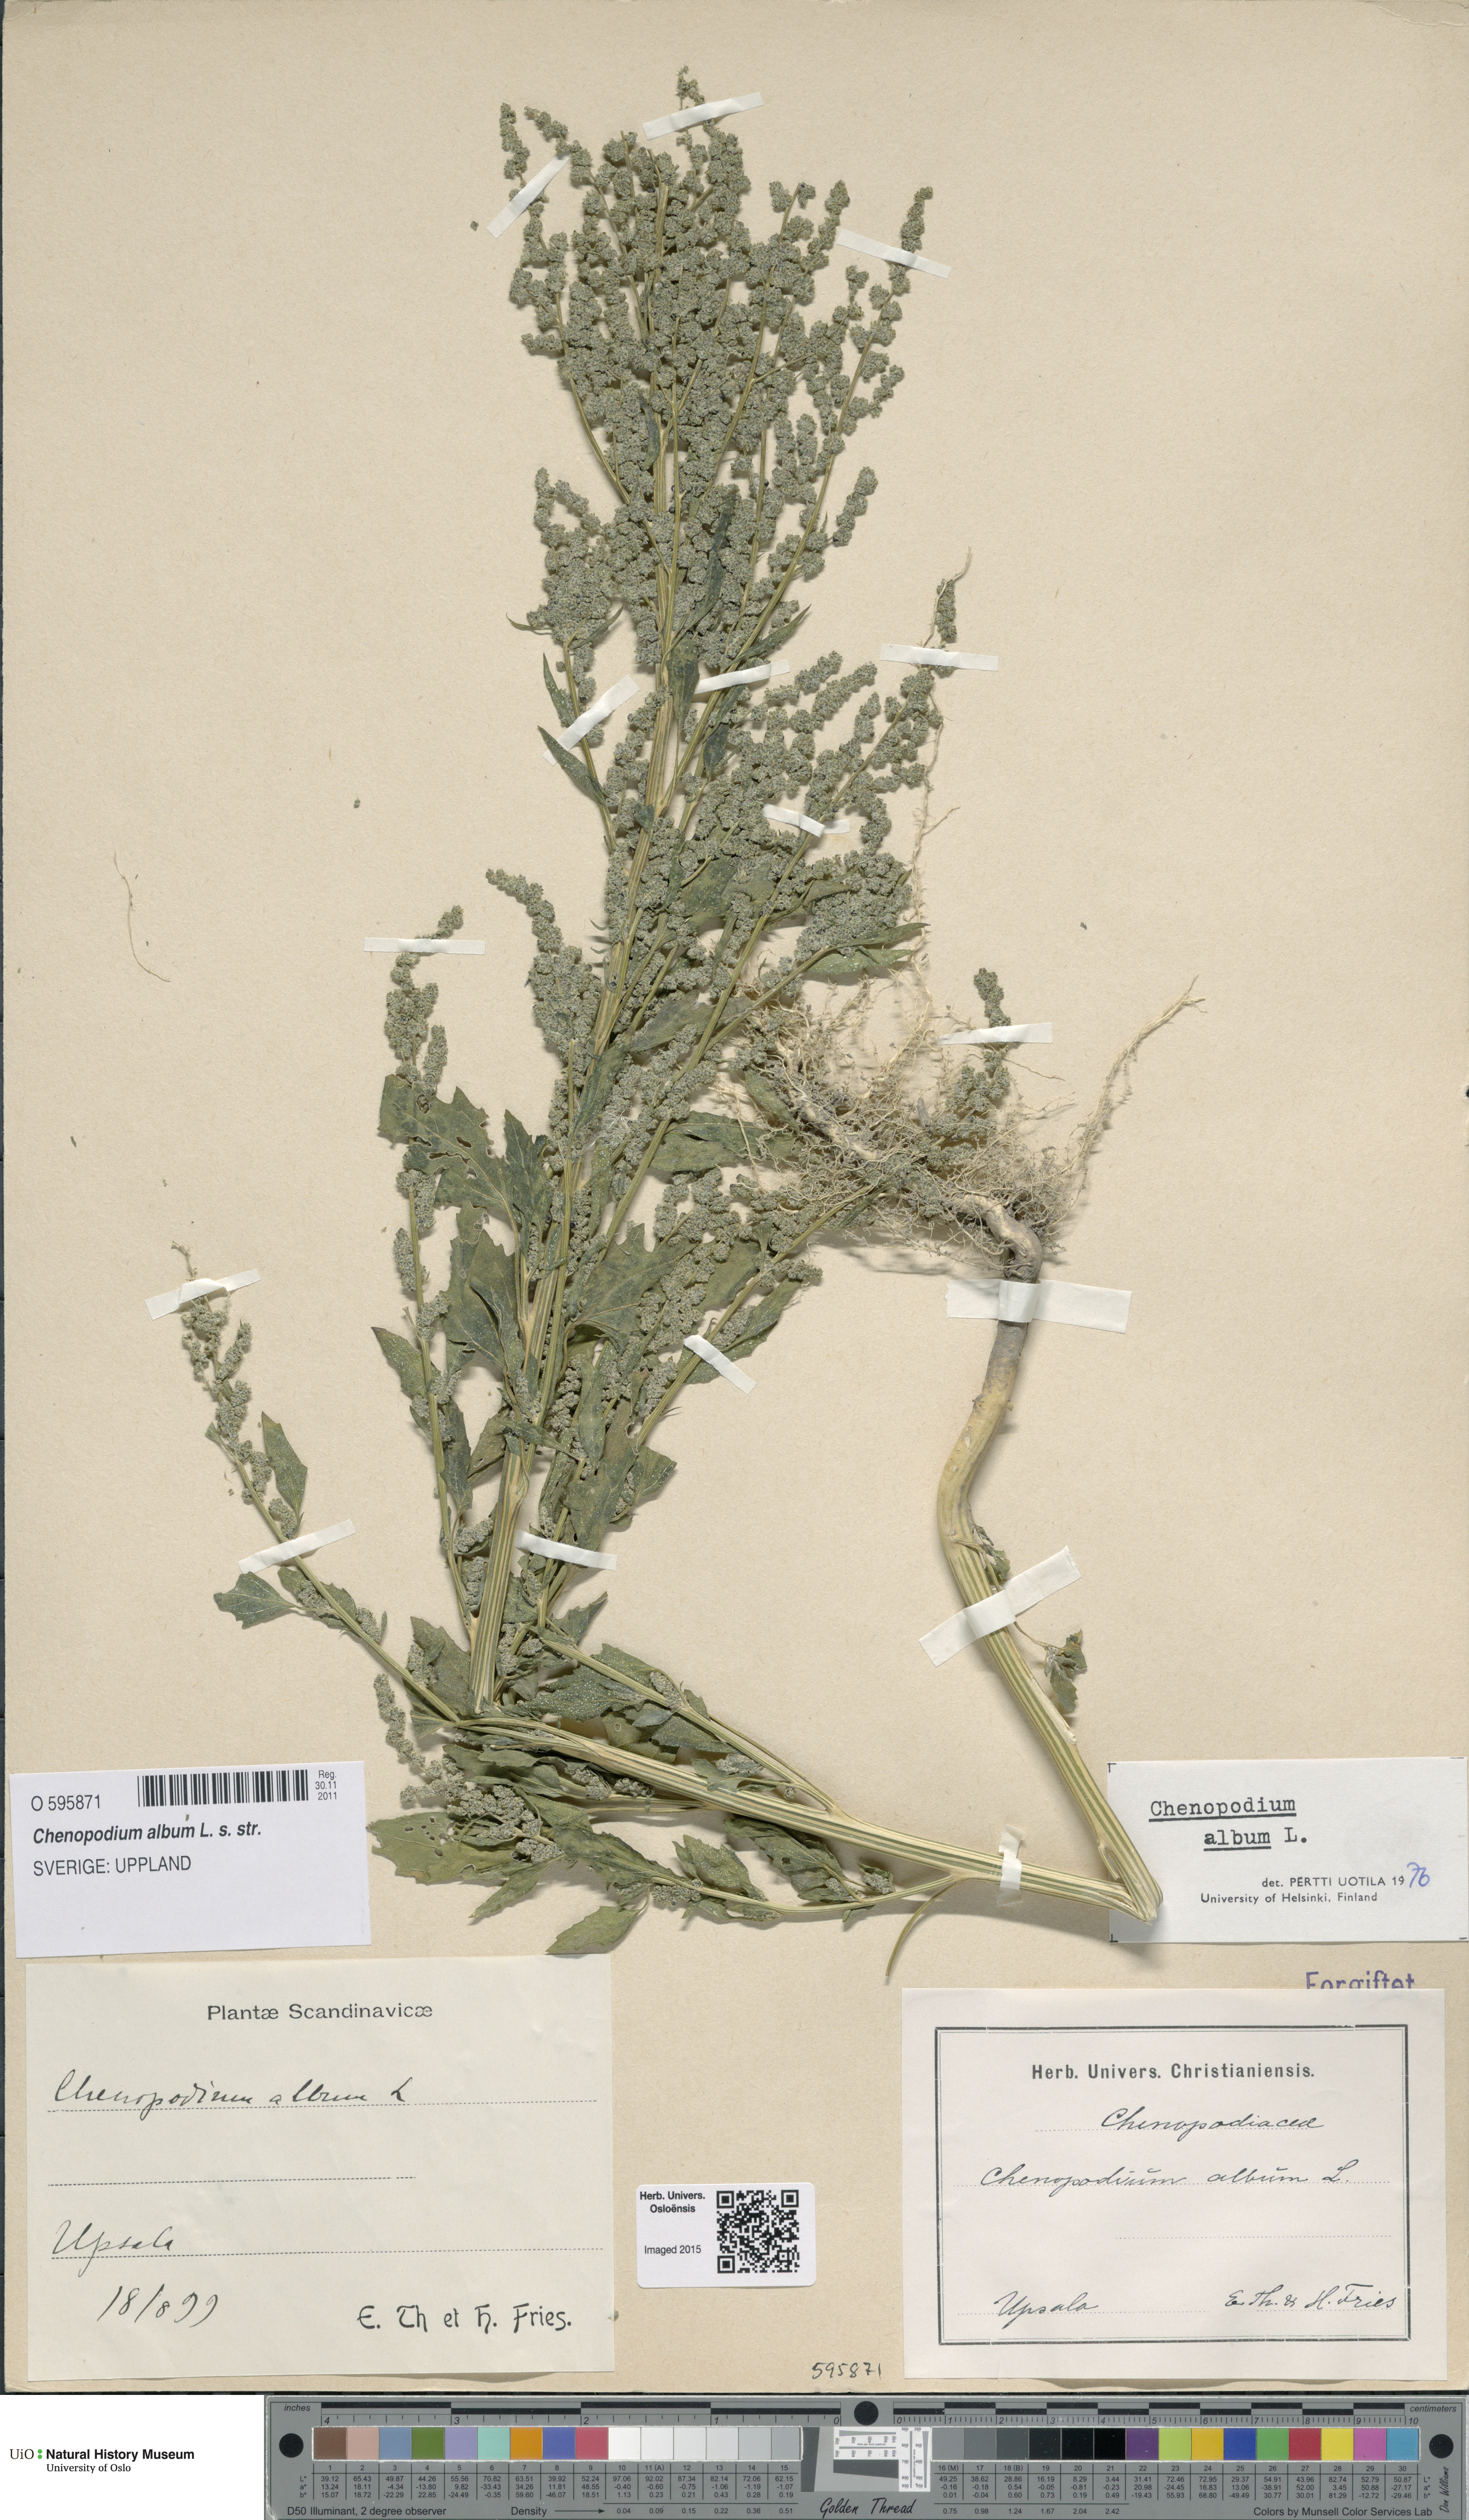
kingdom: Plantae
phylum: Tracheophyta
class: Magnoliopsida
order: Caryophyllales
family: Amaranthaceae
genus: Chenopodium
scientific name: Chenopodium album
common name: Fat-hen
